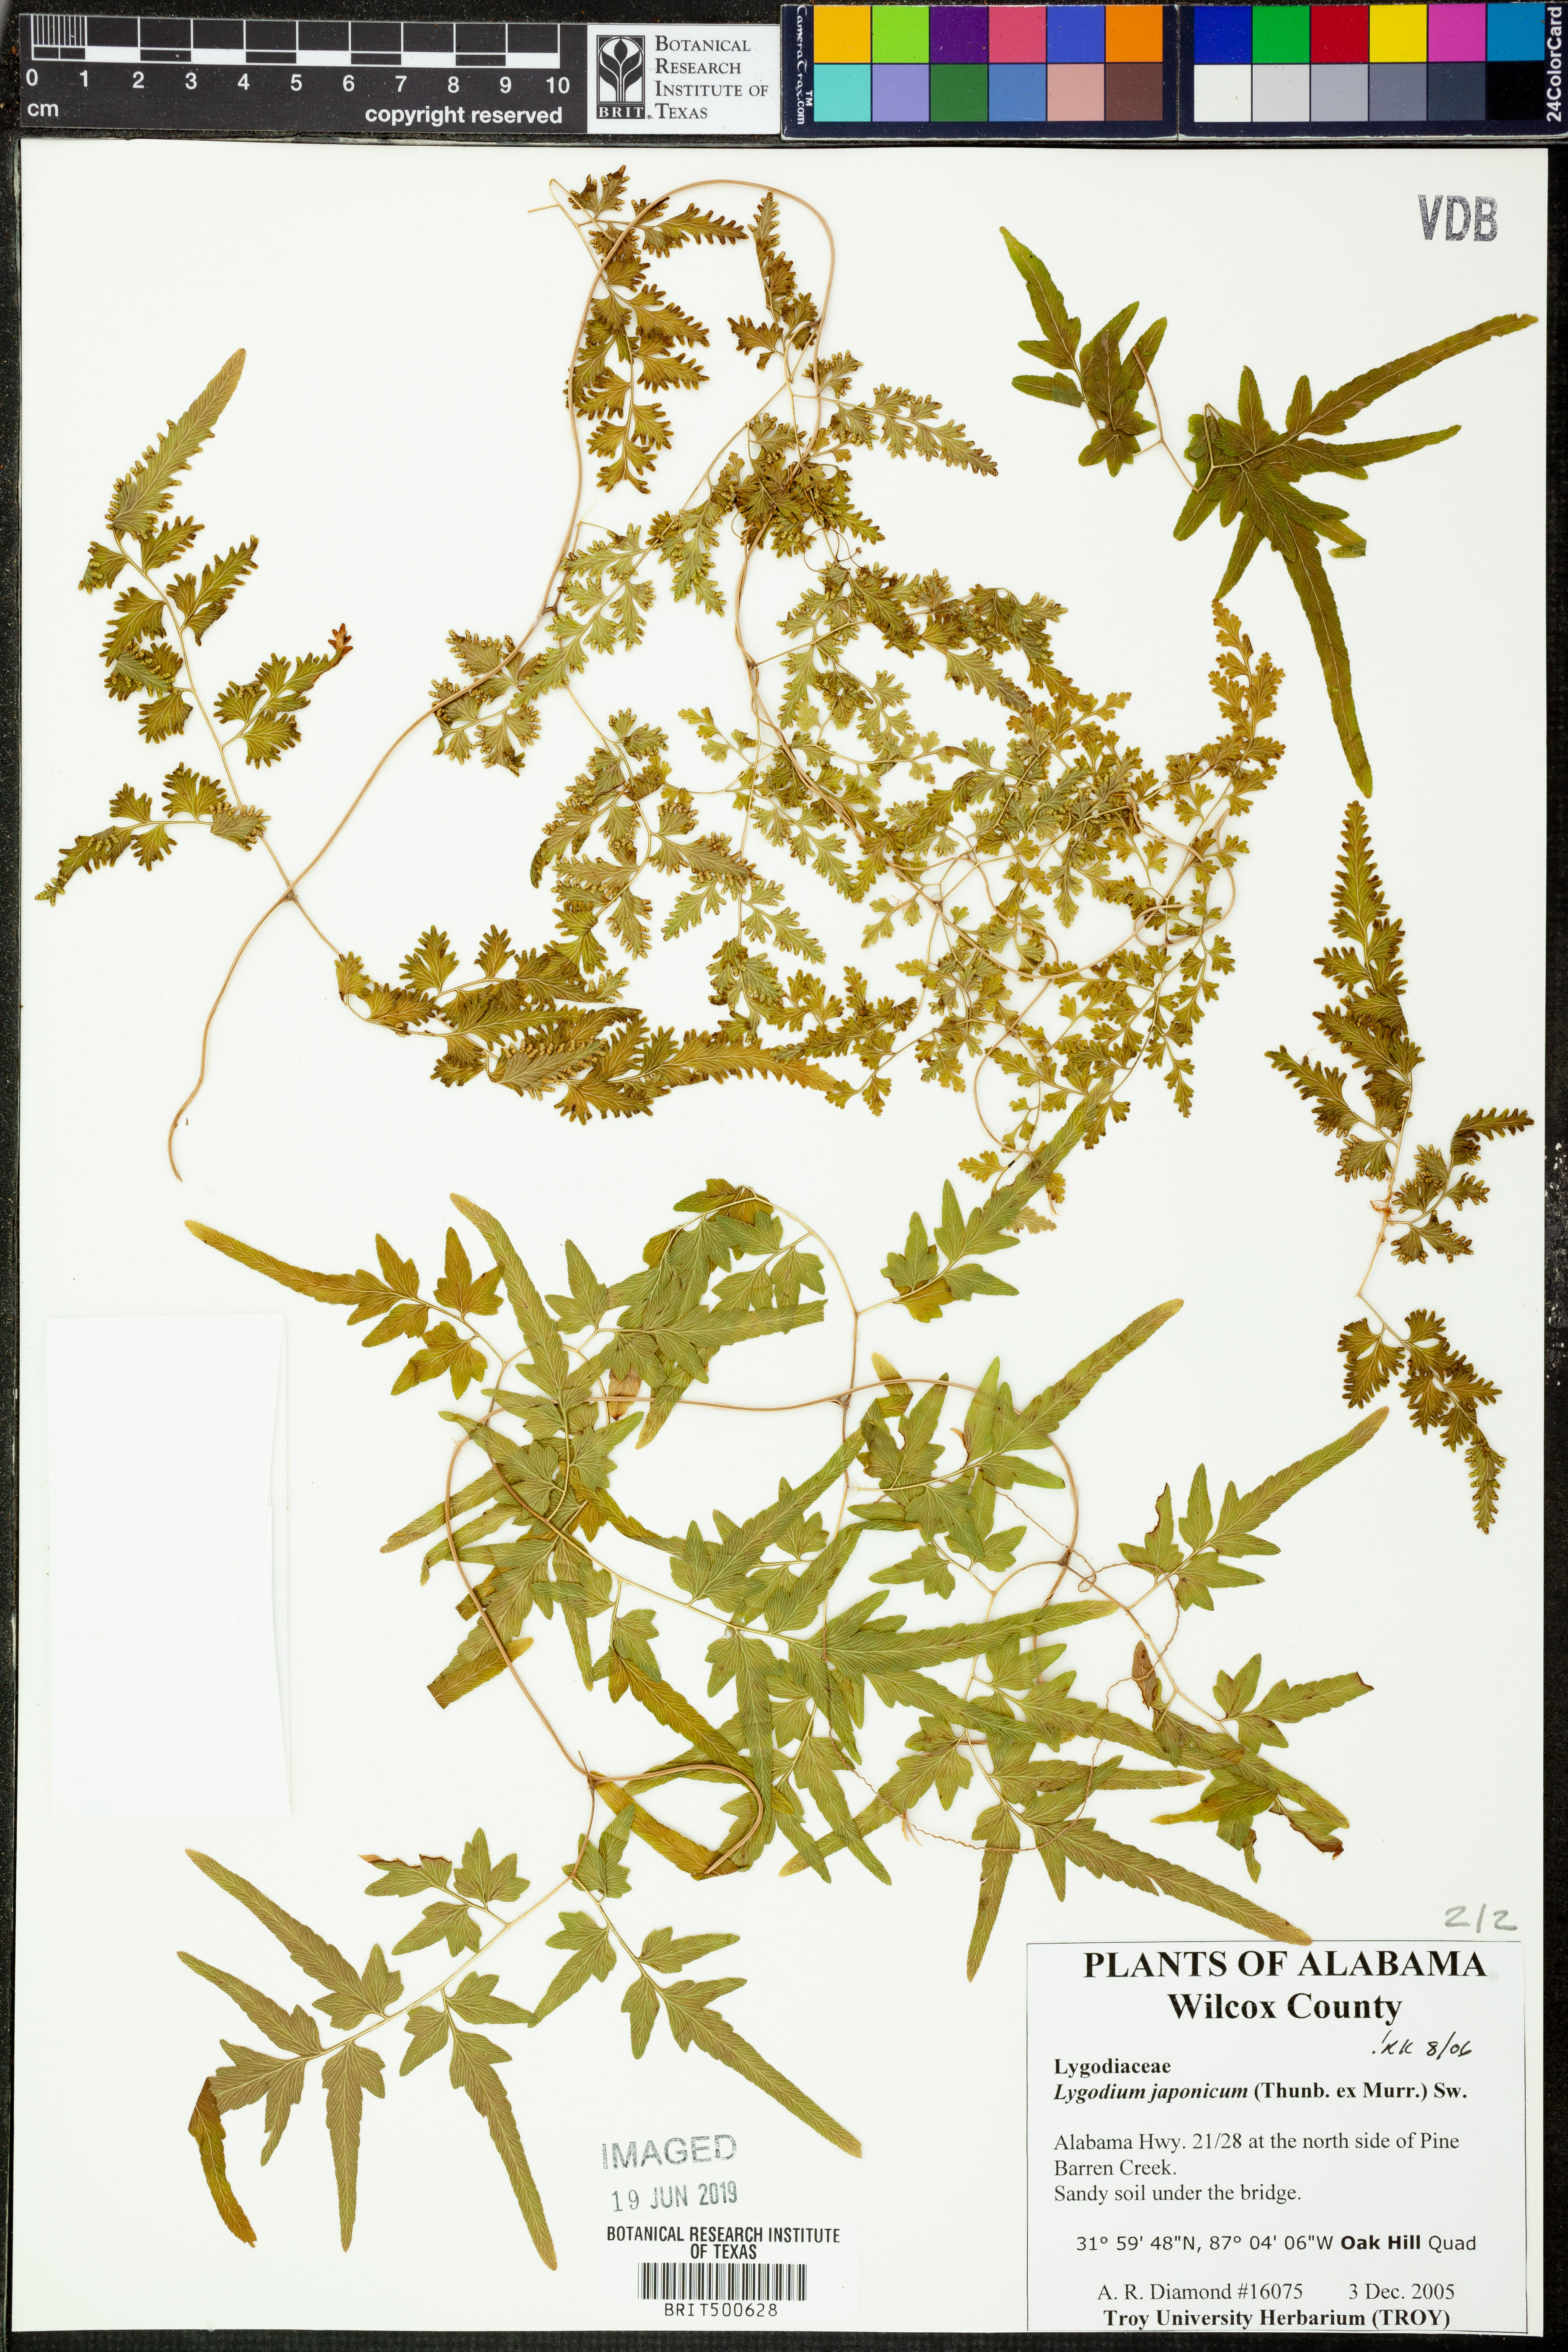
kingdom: Plantae
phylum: Tracheophyta
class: Polypodiopsida
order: Schizaeales
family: Lygodiaceae
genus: Lygodium
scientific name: Lygodium japonicum
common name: Japanese climbing fern
